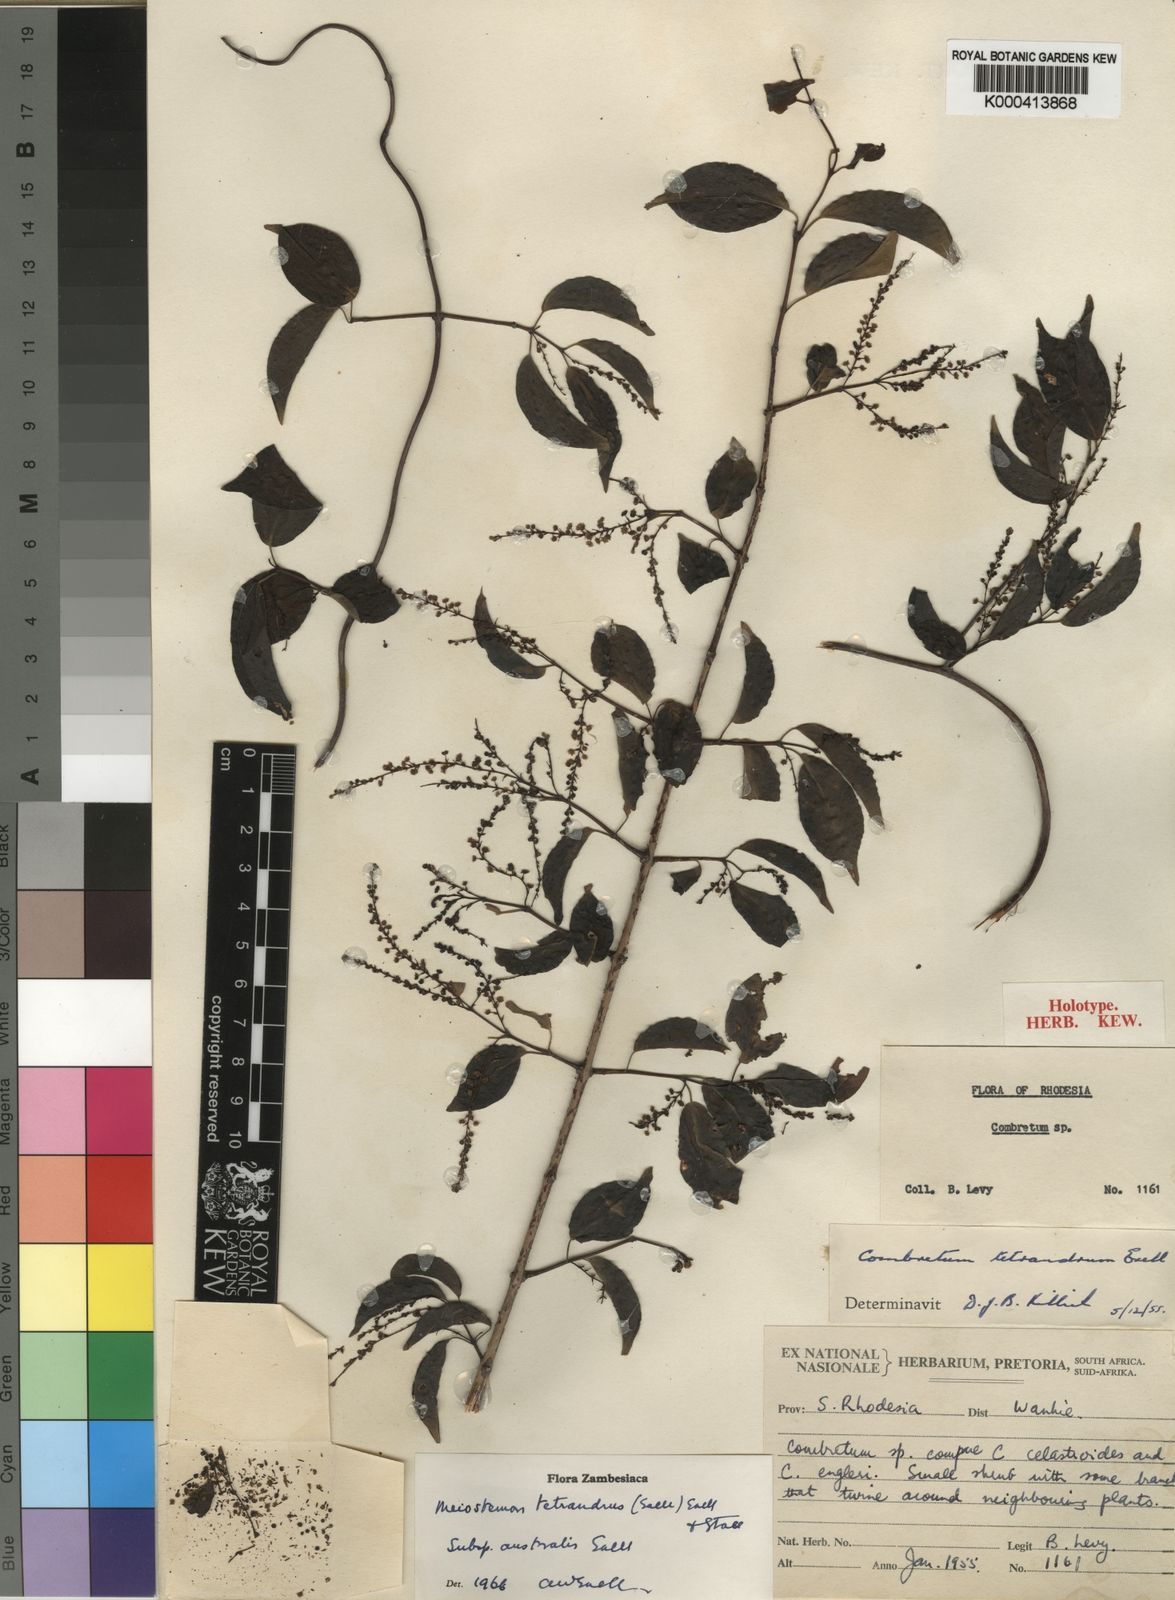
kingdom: Plantae
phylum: Tracheophyta
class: Magnoliopsida
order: Myrtales
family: Combretaceae
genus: Combretum
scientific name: Combretum tetrandrum
